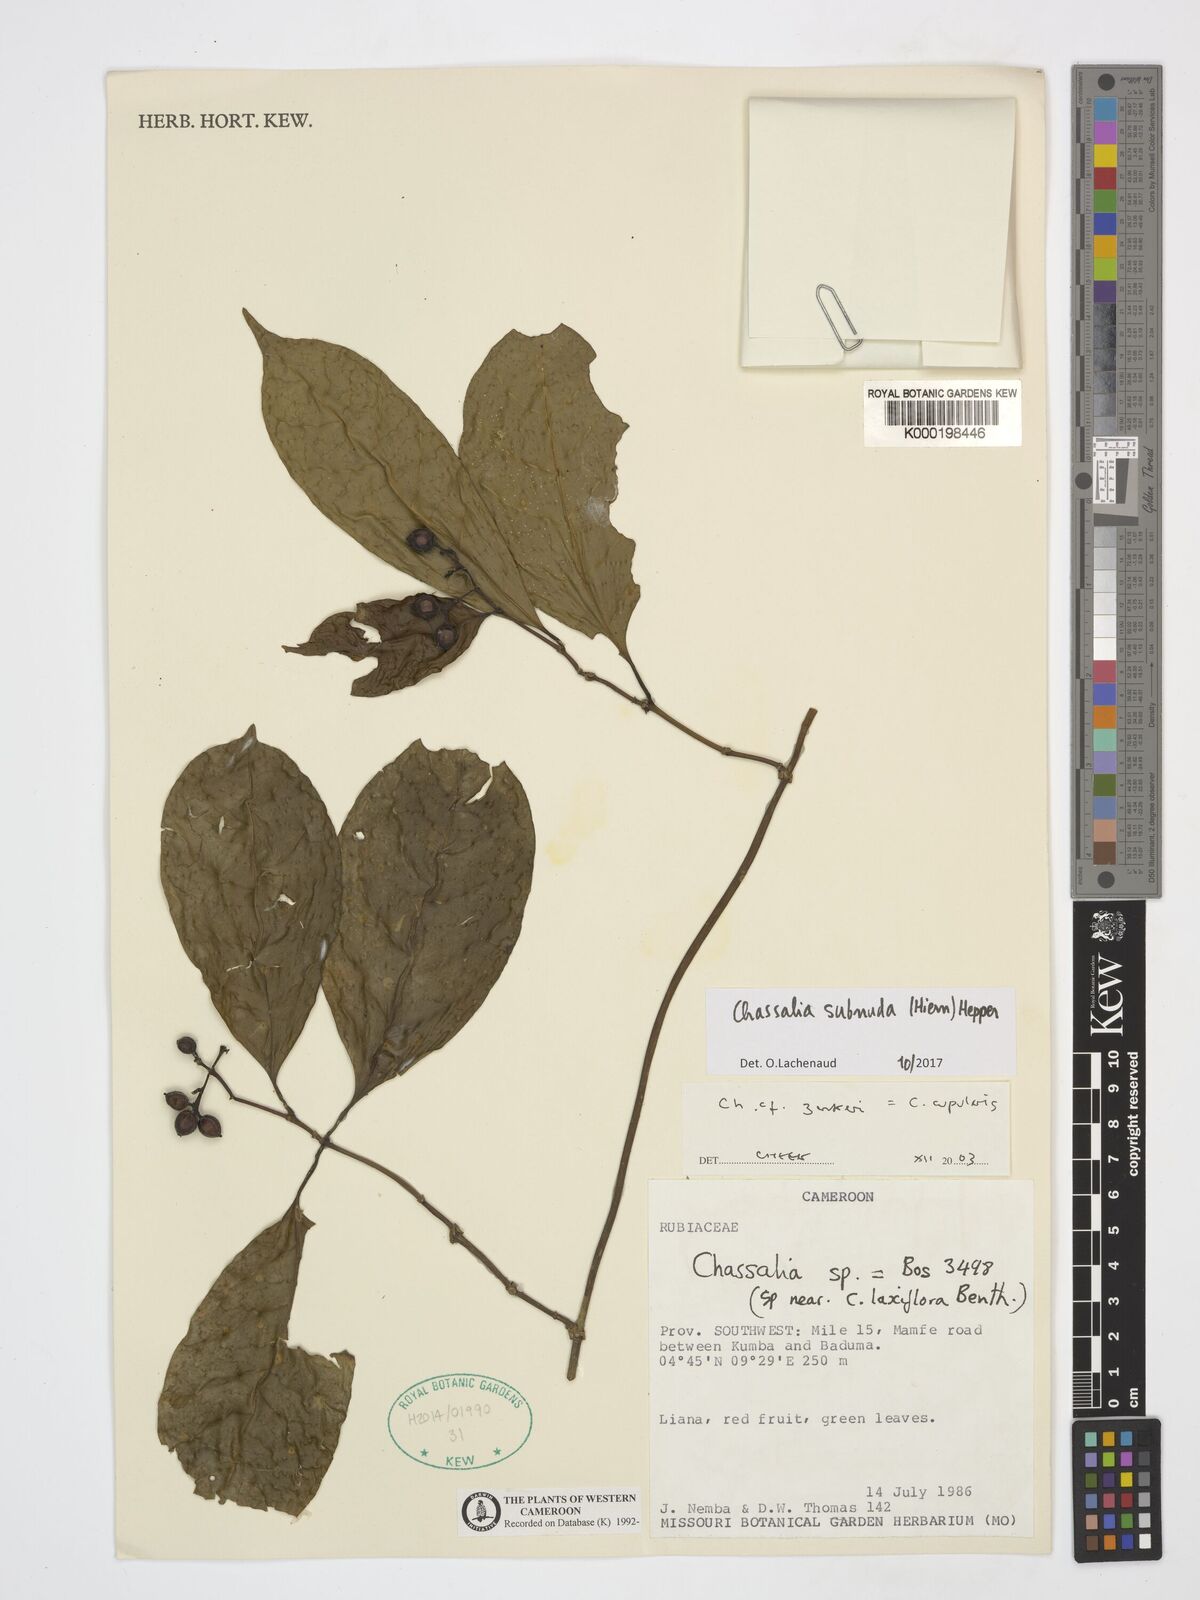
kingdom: Plantae
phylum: Tracheophyta
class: Magnoliopsida
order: Gentianales
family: Rubiaceae
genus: Chassalia
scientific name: Chassalia zenkeri
